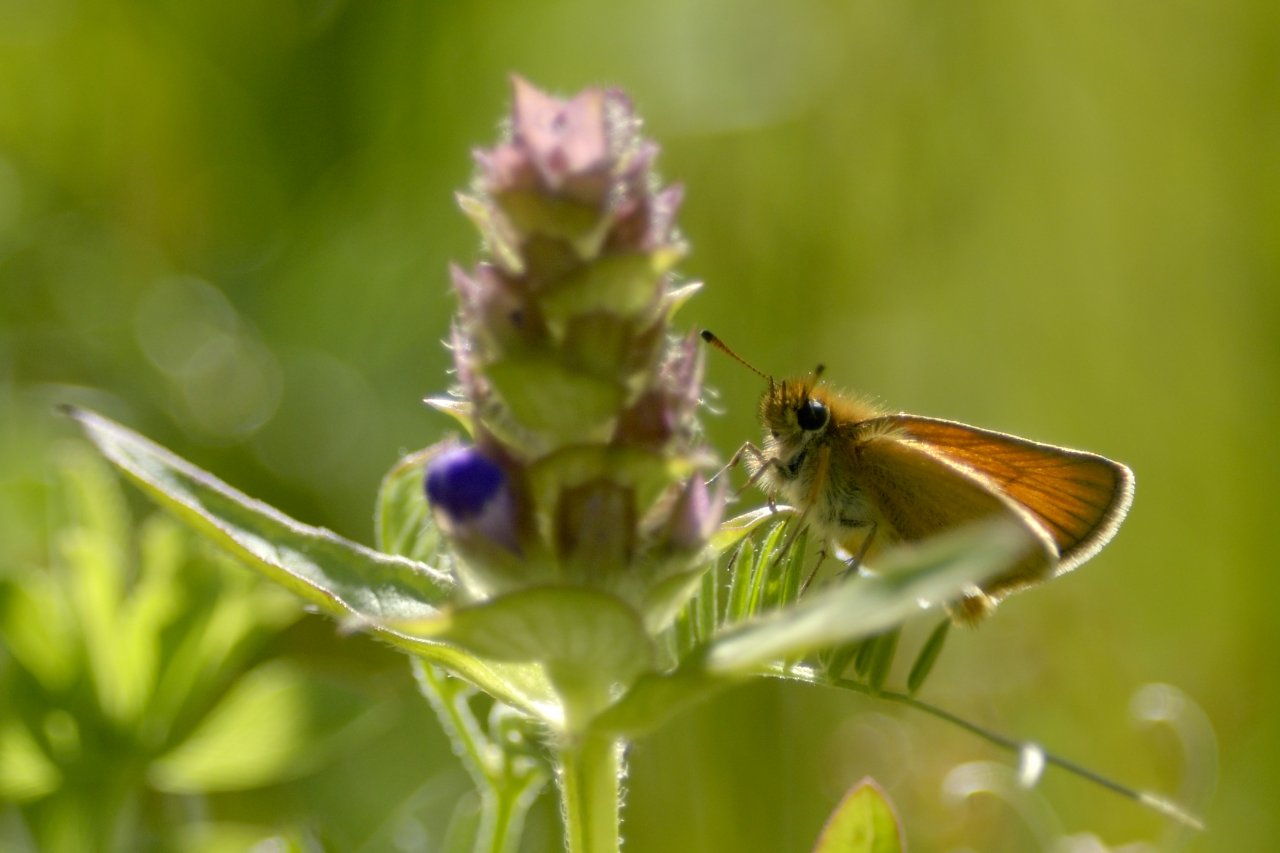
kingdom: Animalia
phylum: Arthropoda
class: Insecta
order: Lepidoptera
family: Hesperiidae
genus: Thymelicus
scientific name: Thymelicus lineola
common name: European Skipper
